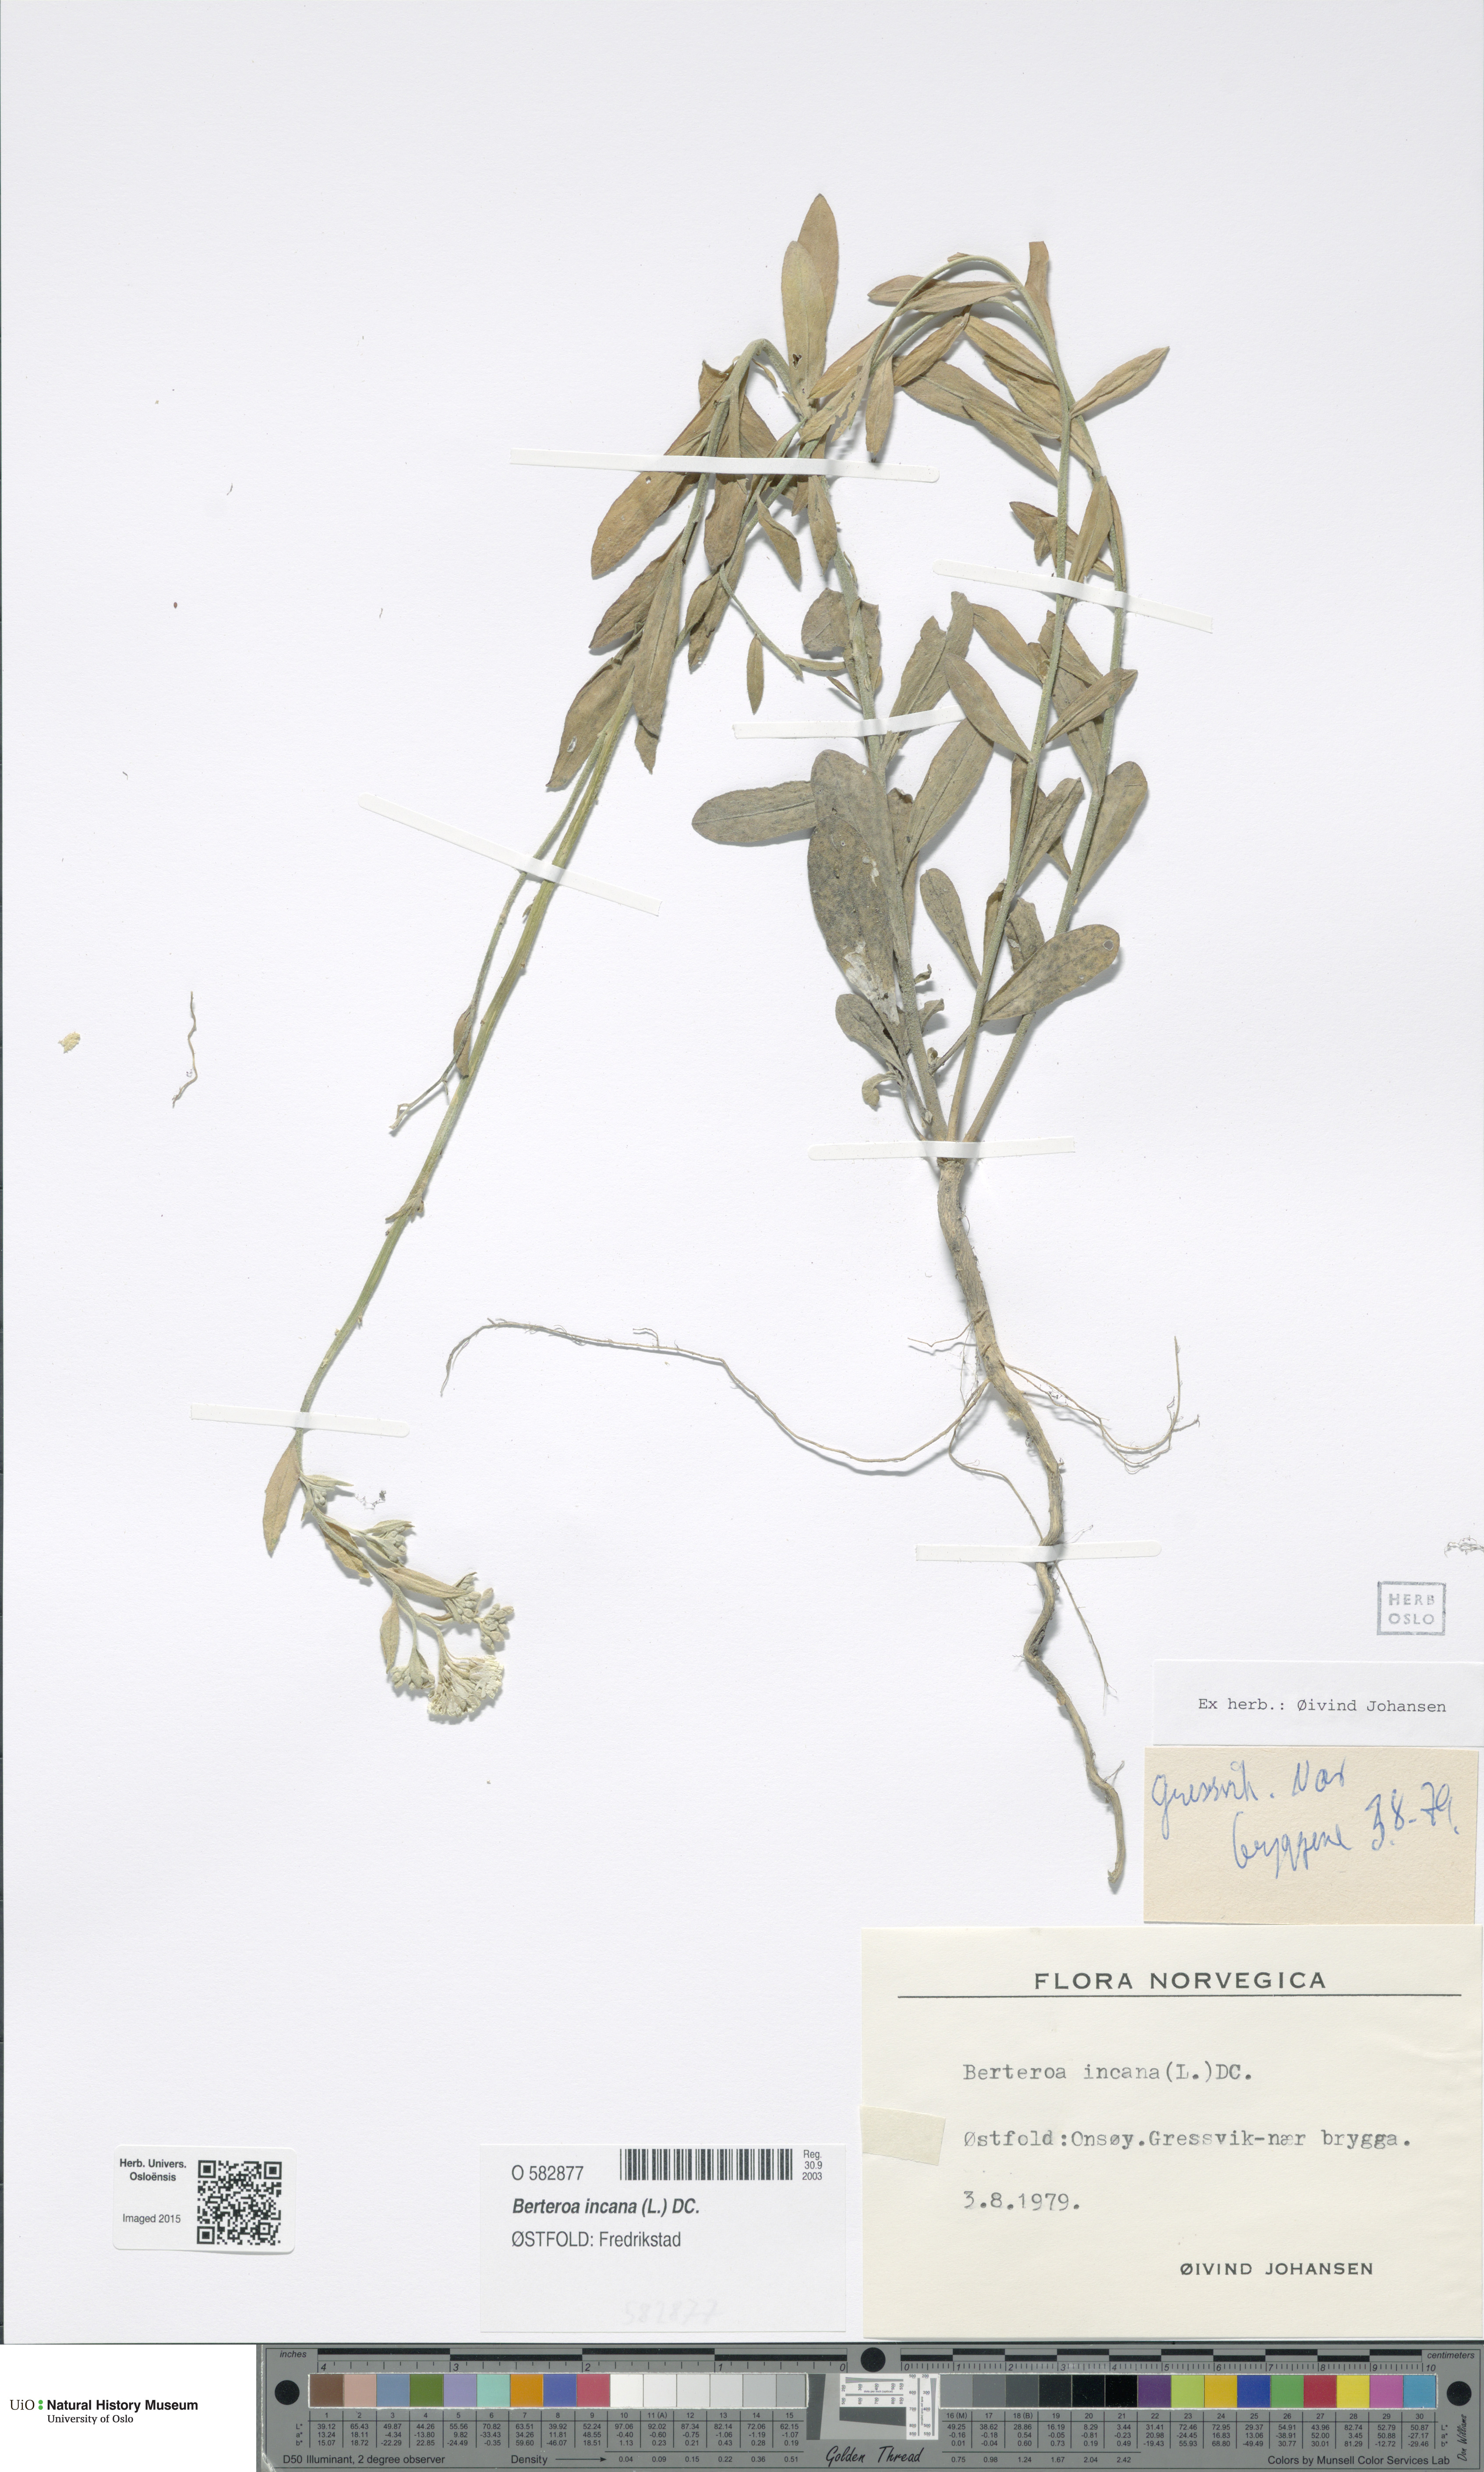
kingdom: Plantae
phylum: Tracheophyta
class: Magnoliopsida
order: Brassicales
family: Brassicaceae
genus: Berteroa
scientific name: Berteroa incana
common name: Hoary alison
